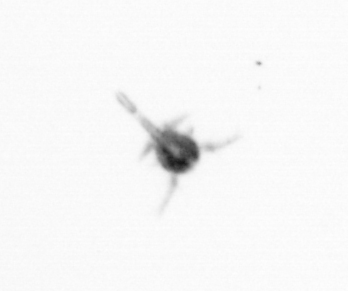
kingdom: Animalia
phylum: Arthropoda
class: Copepoda
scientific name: Copepoda
